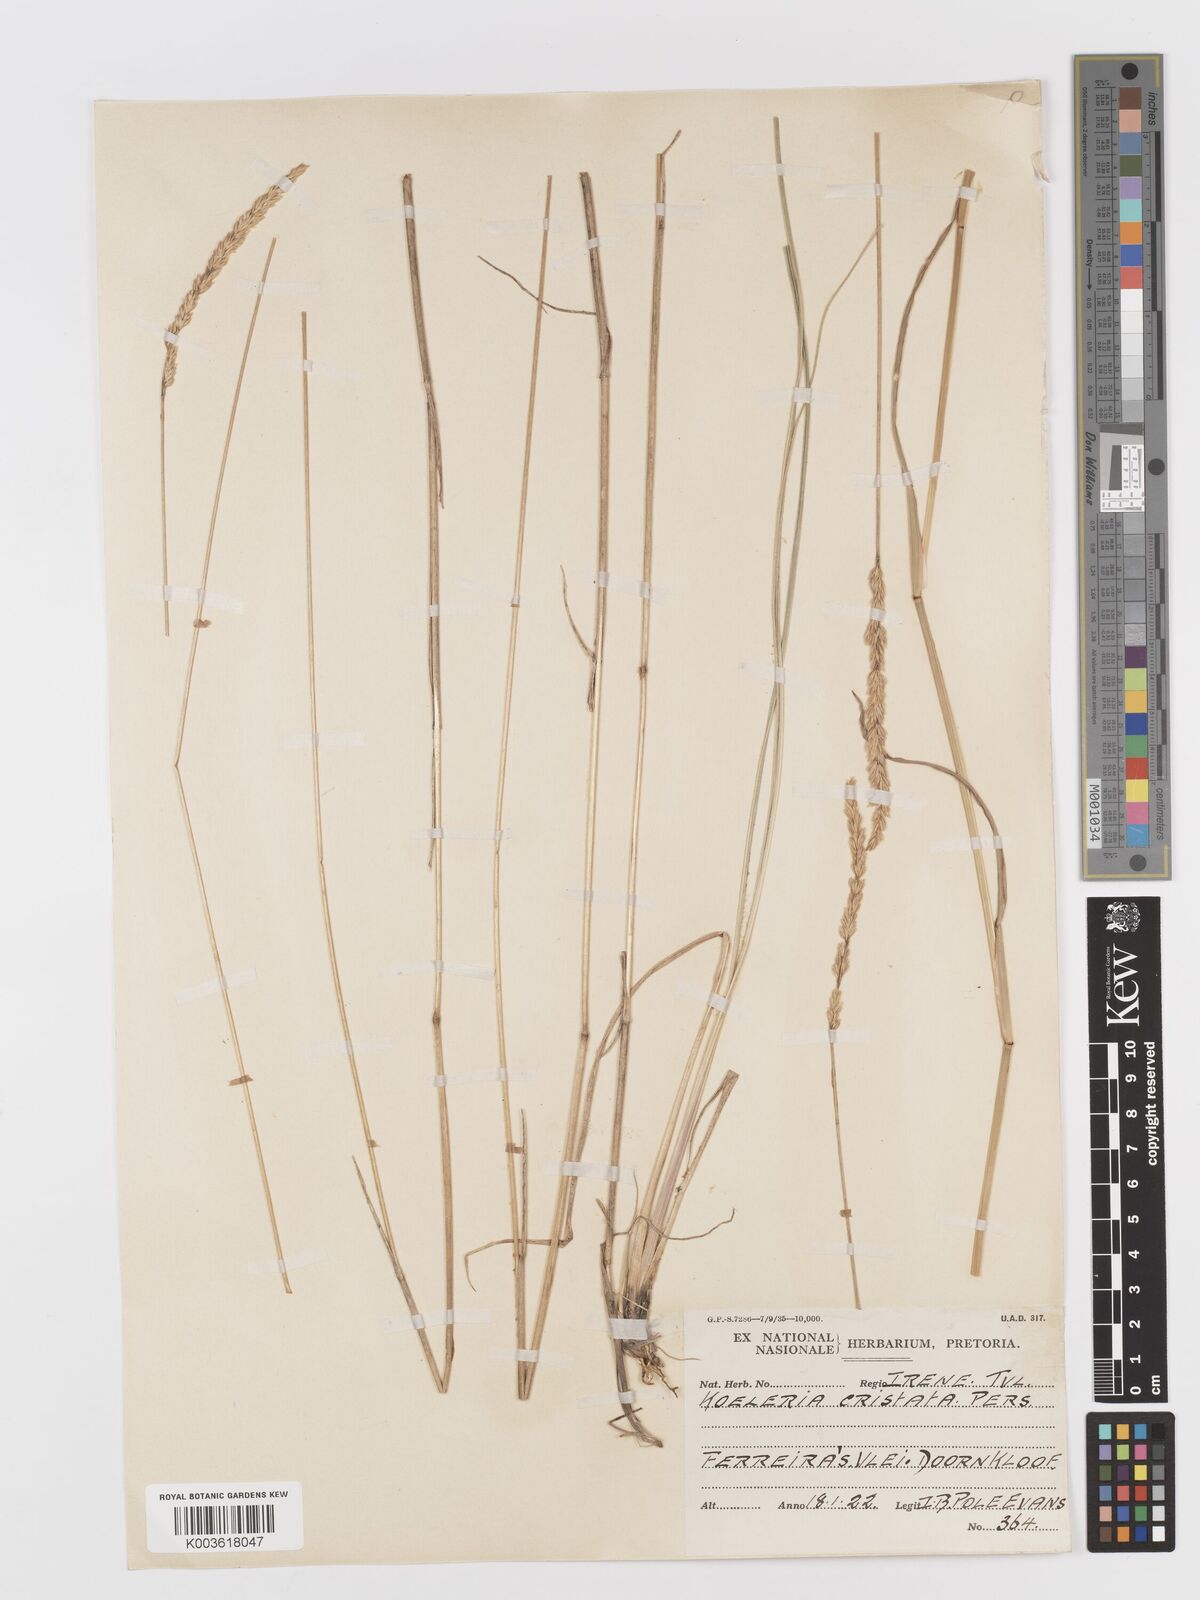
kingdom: Plantae
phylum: Tracheophyta
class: Liliopsida
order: Poales
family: Poaceae
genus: Koeleria
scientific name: Koeleria capensis
